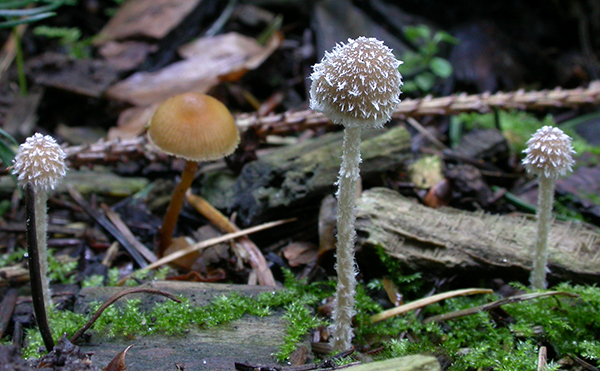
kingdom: Fungi
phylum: Basidiomycota
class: Agaricomycetes
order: Agaricales
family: Psathyrellaceae
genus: Psathyrella
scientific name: Psathyrella impexa
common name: rødmende mørkhat
